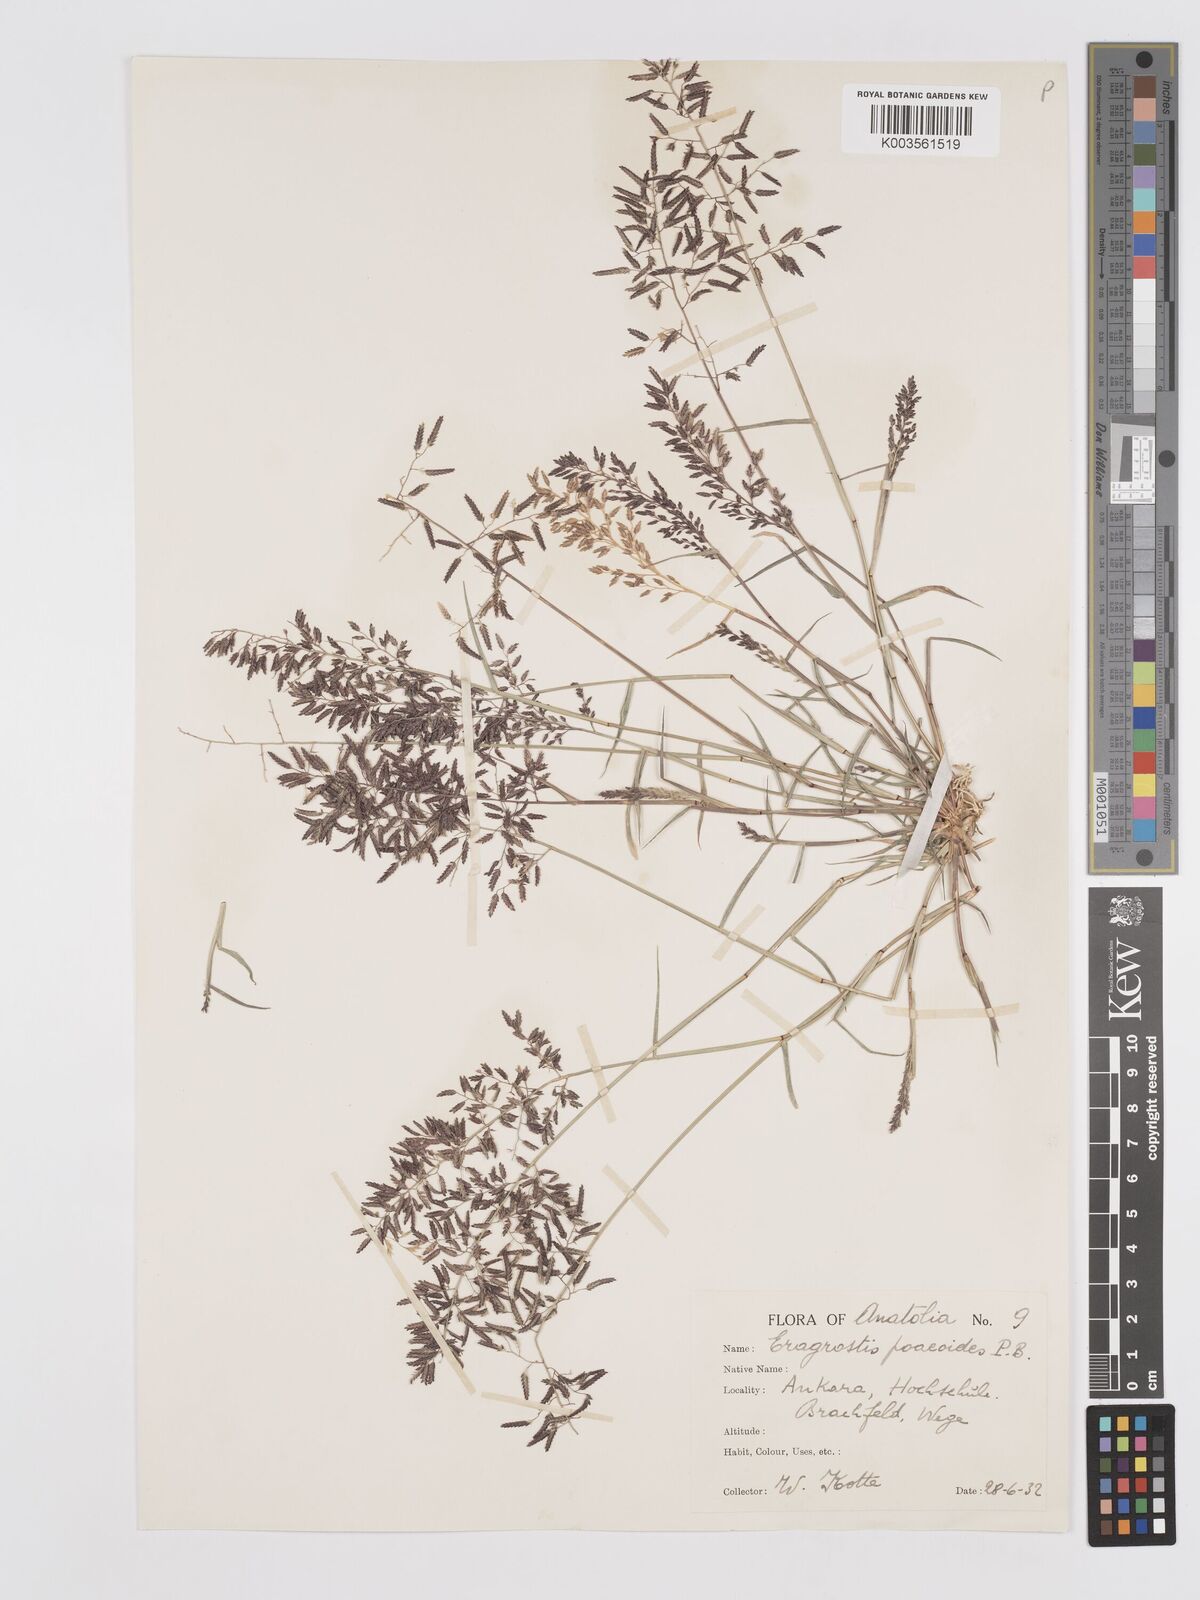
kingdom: Plantae
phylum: Tracheophyta
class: Liliopsida
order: Poales
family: Poaceae
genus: Eragrostis
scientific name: Eragrostis minor
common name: Small love-grass
